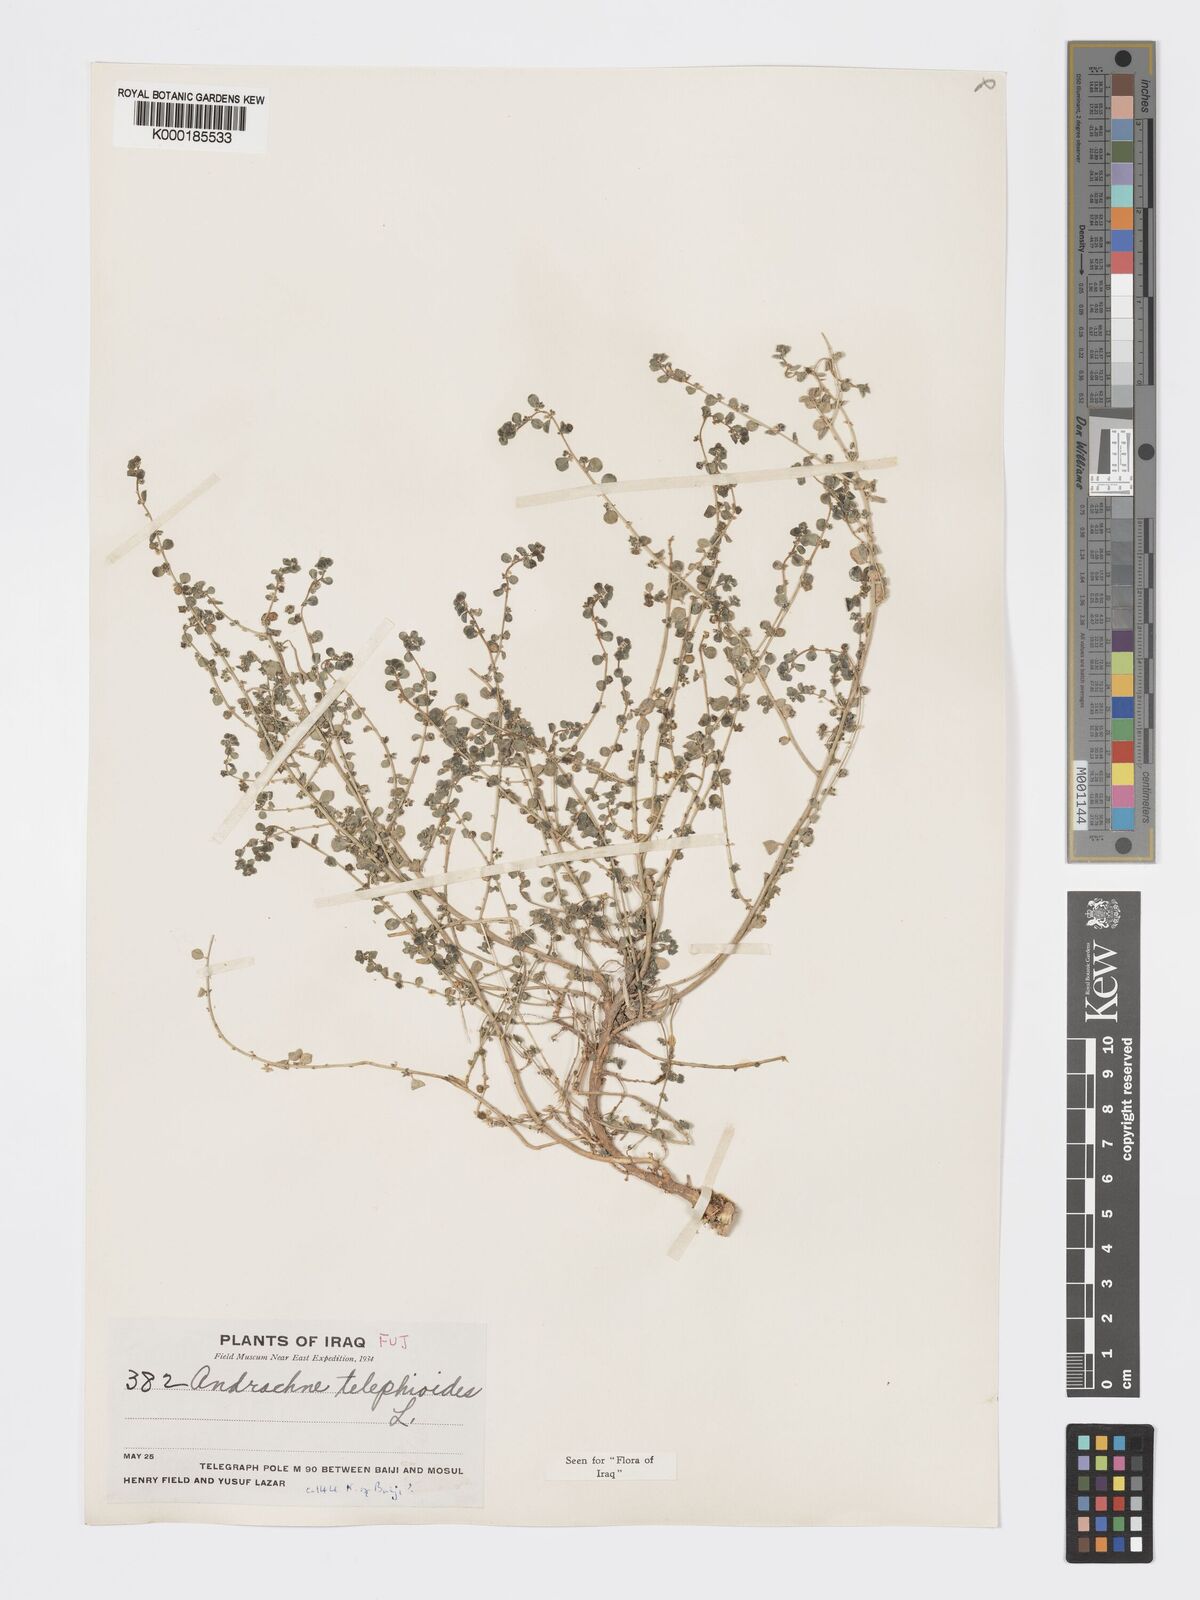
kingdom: Plantae
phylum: Tracheophyta
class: Magnoliopsida
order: Malpighiales
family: Phyllanthaceae
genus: Andrachne
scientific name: Andrachne telephioides
